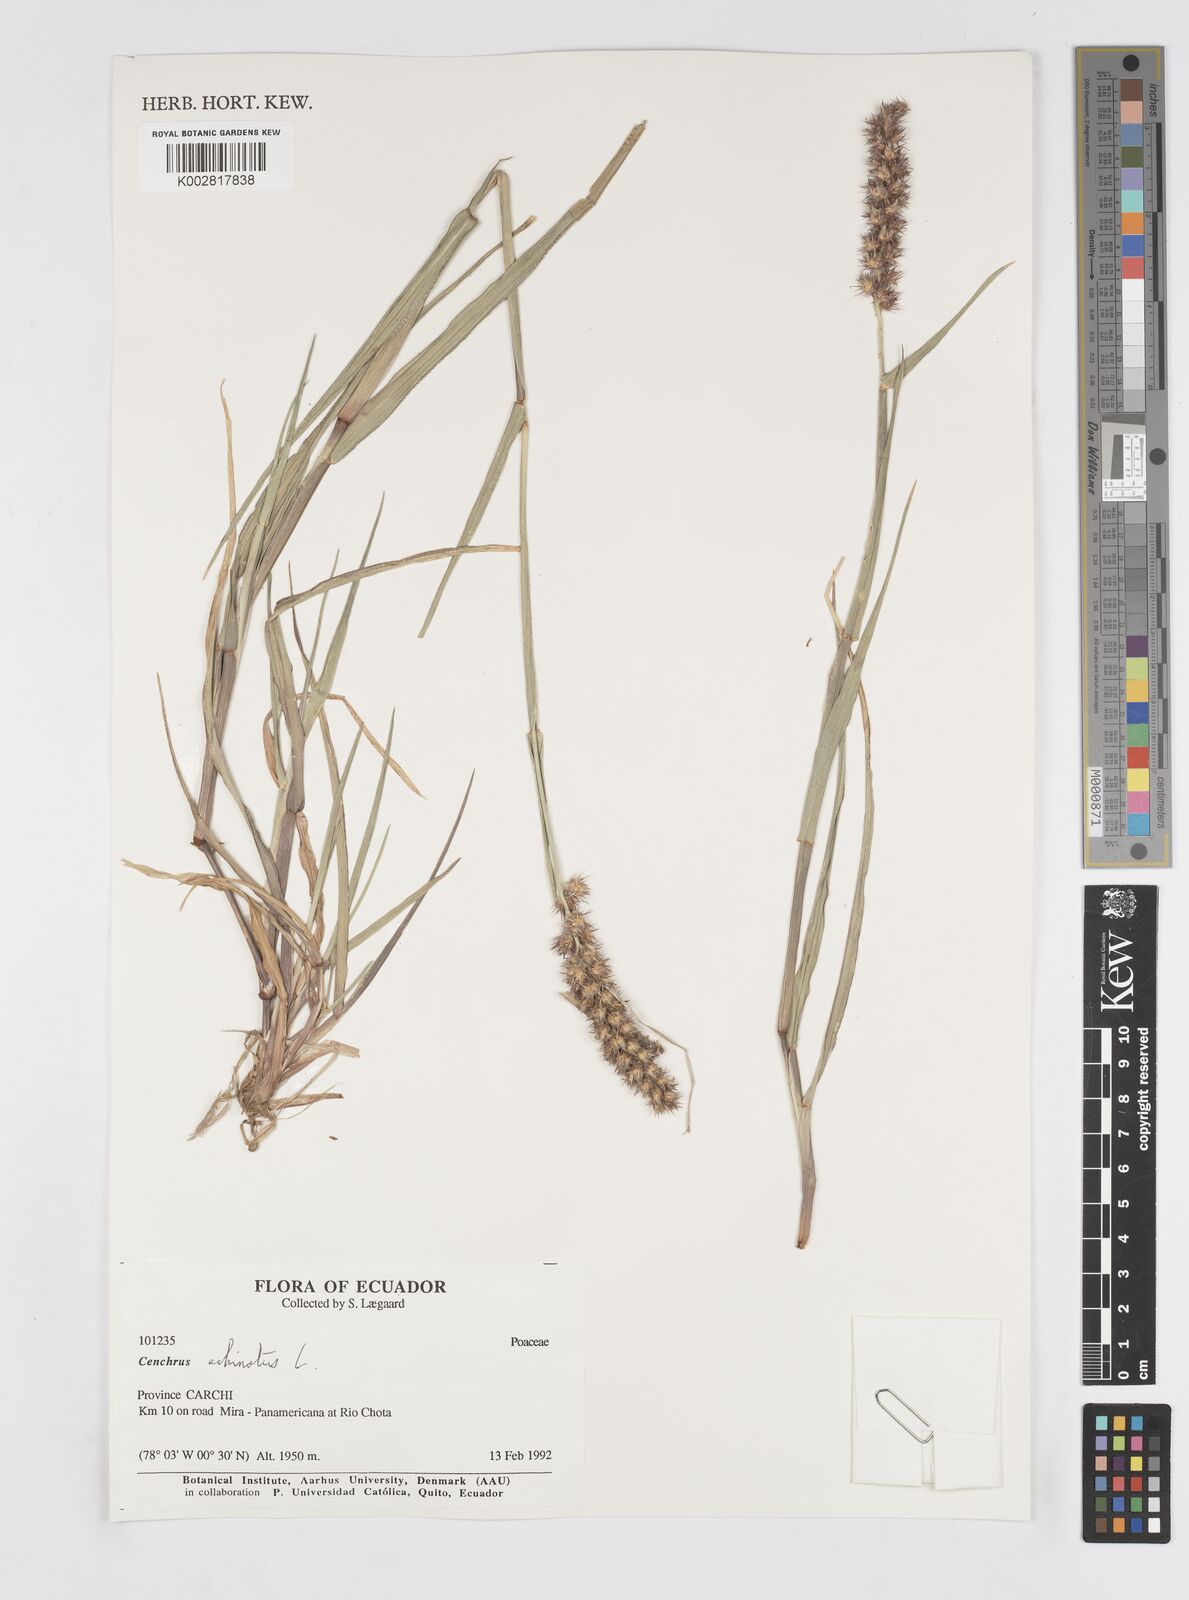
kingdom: Plantae
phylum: Tracheophyta
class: Liliopsida
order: Poales
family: Poaceae
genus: Cenchrus
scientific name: Cenchrus
